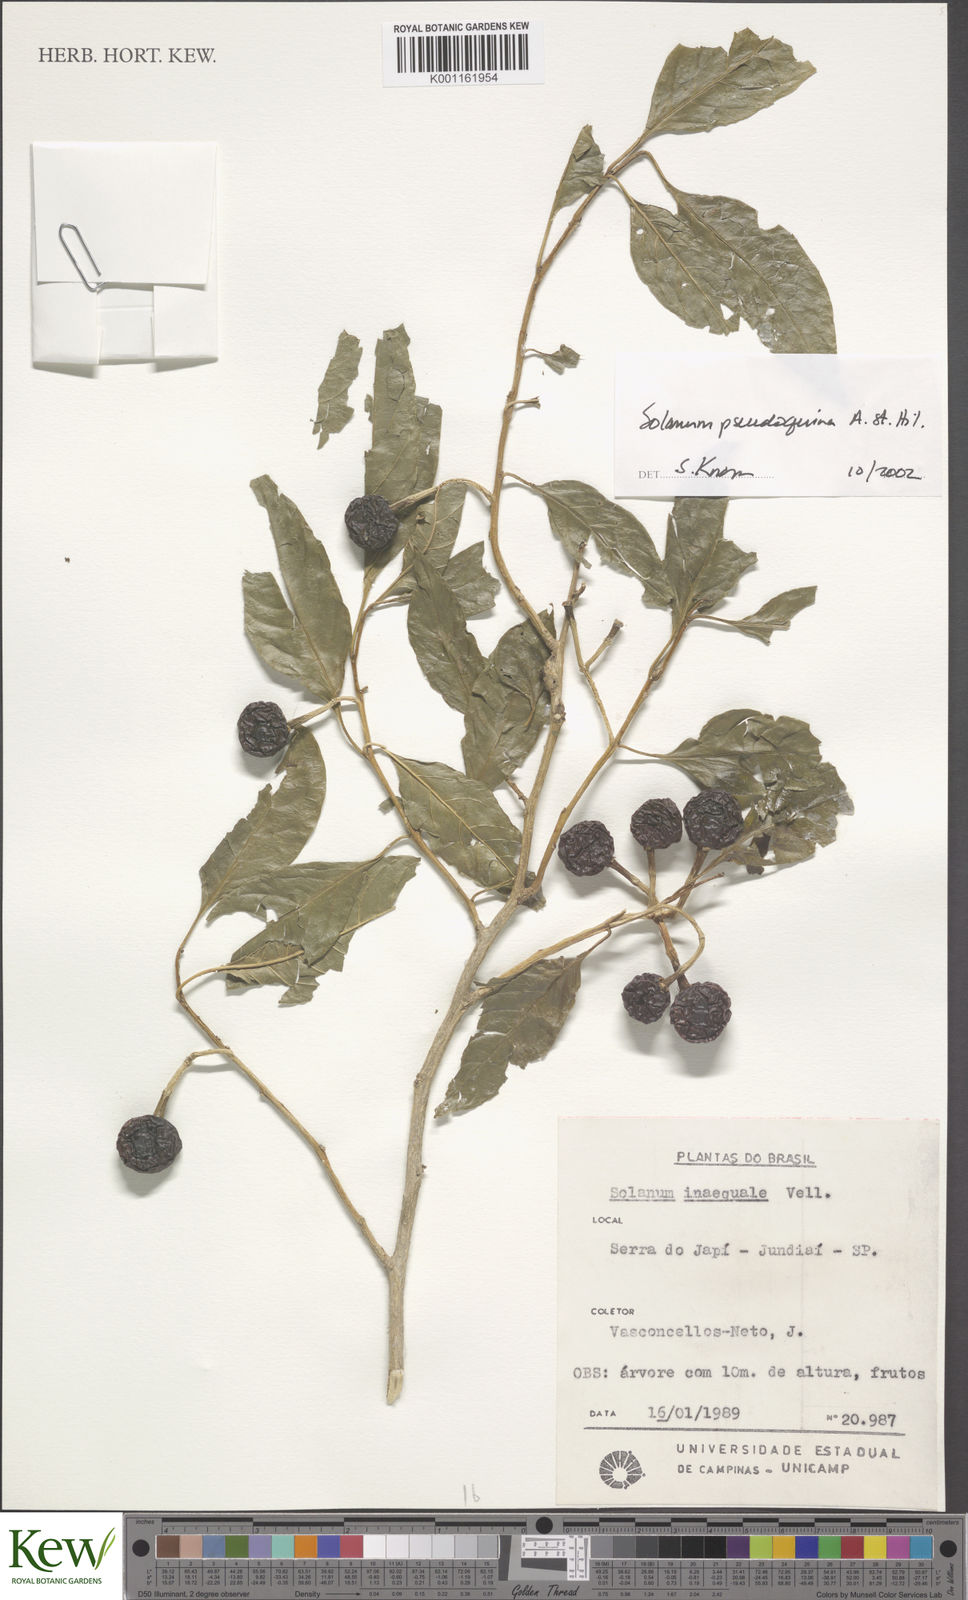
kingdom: Plantae
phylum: Tracheophyta
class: Magnoliopsida
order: Solanales
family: Solanaceae
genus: Solanum
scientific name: Solanum pseudoquina
